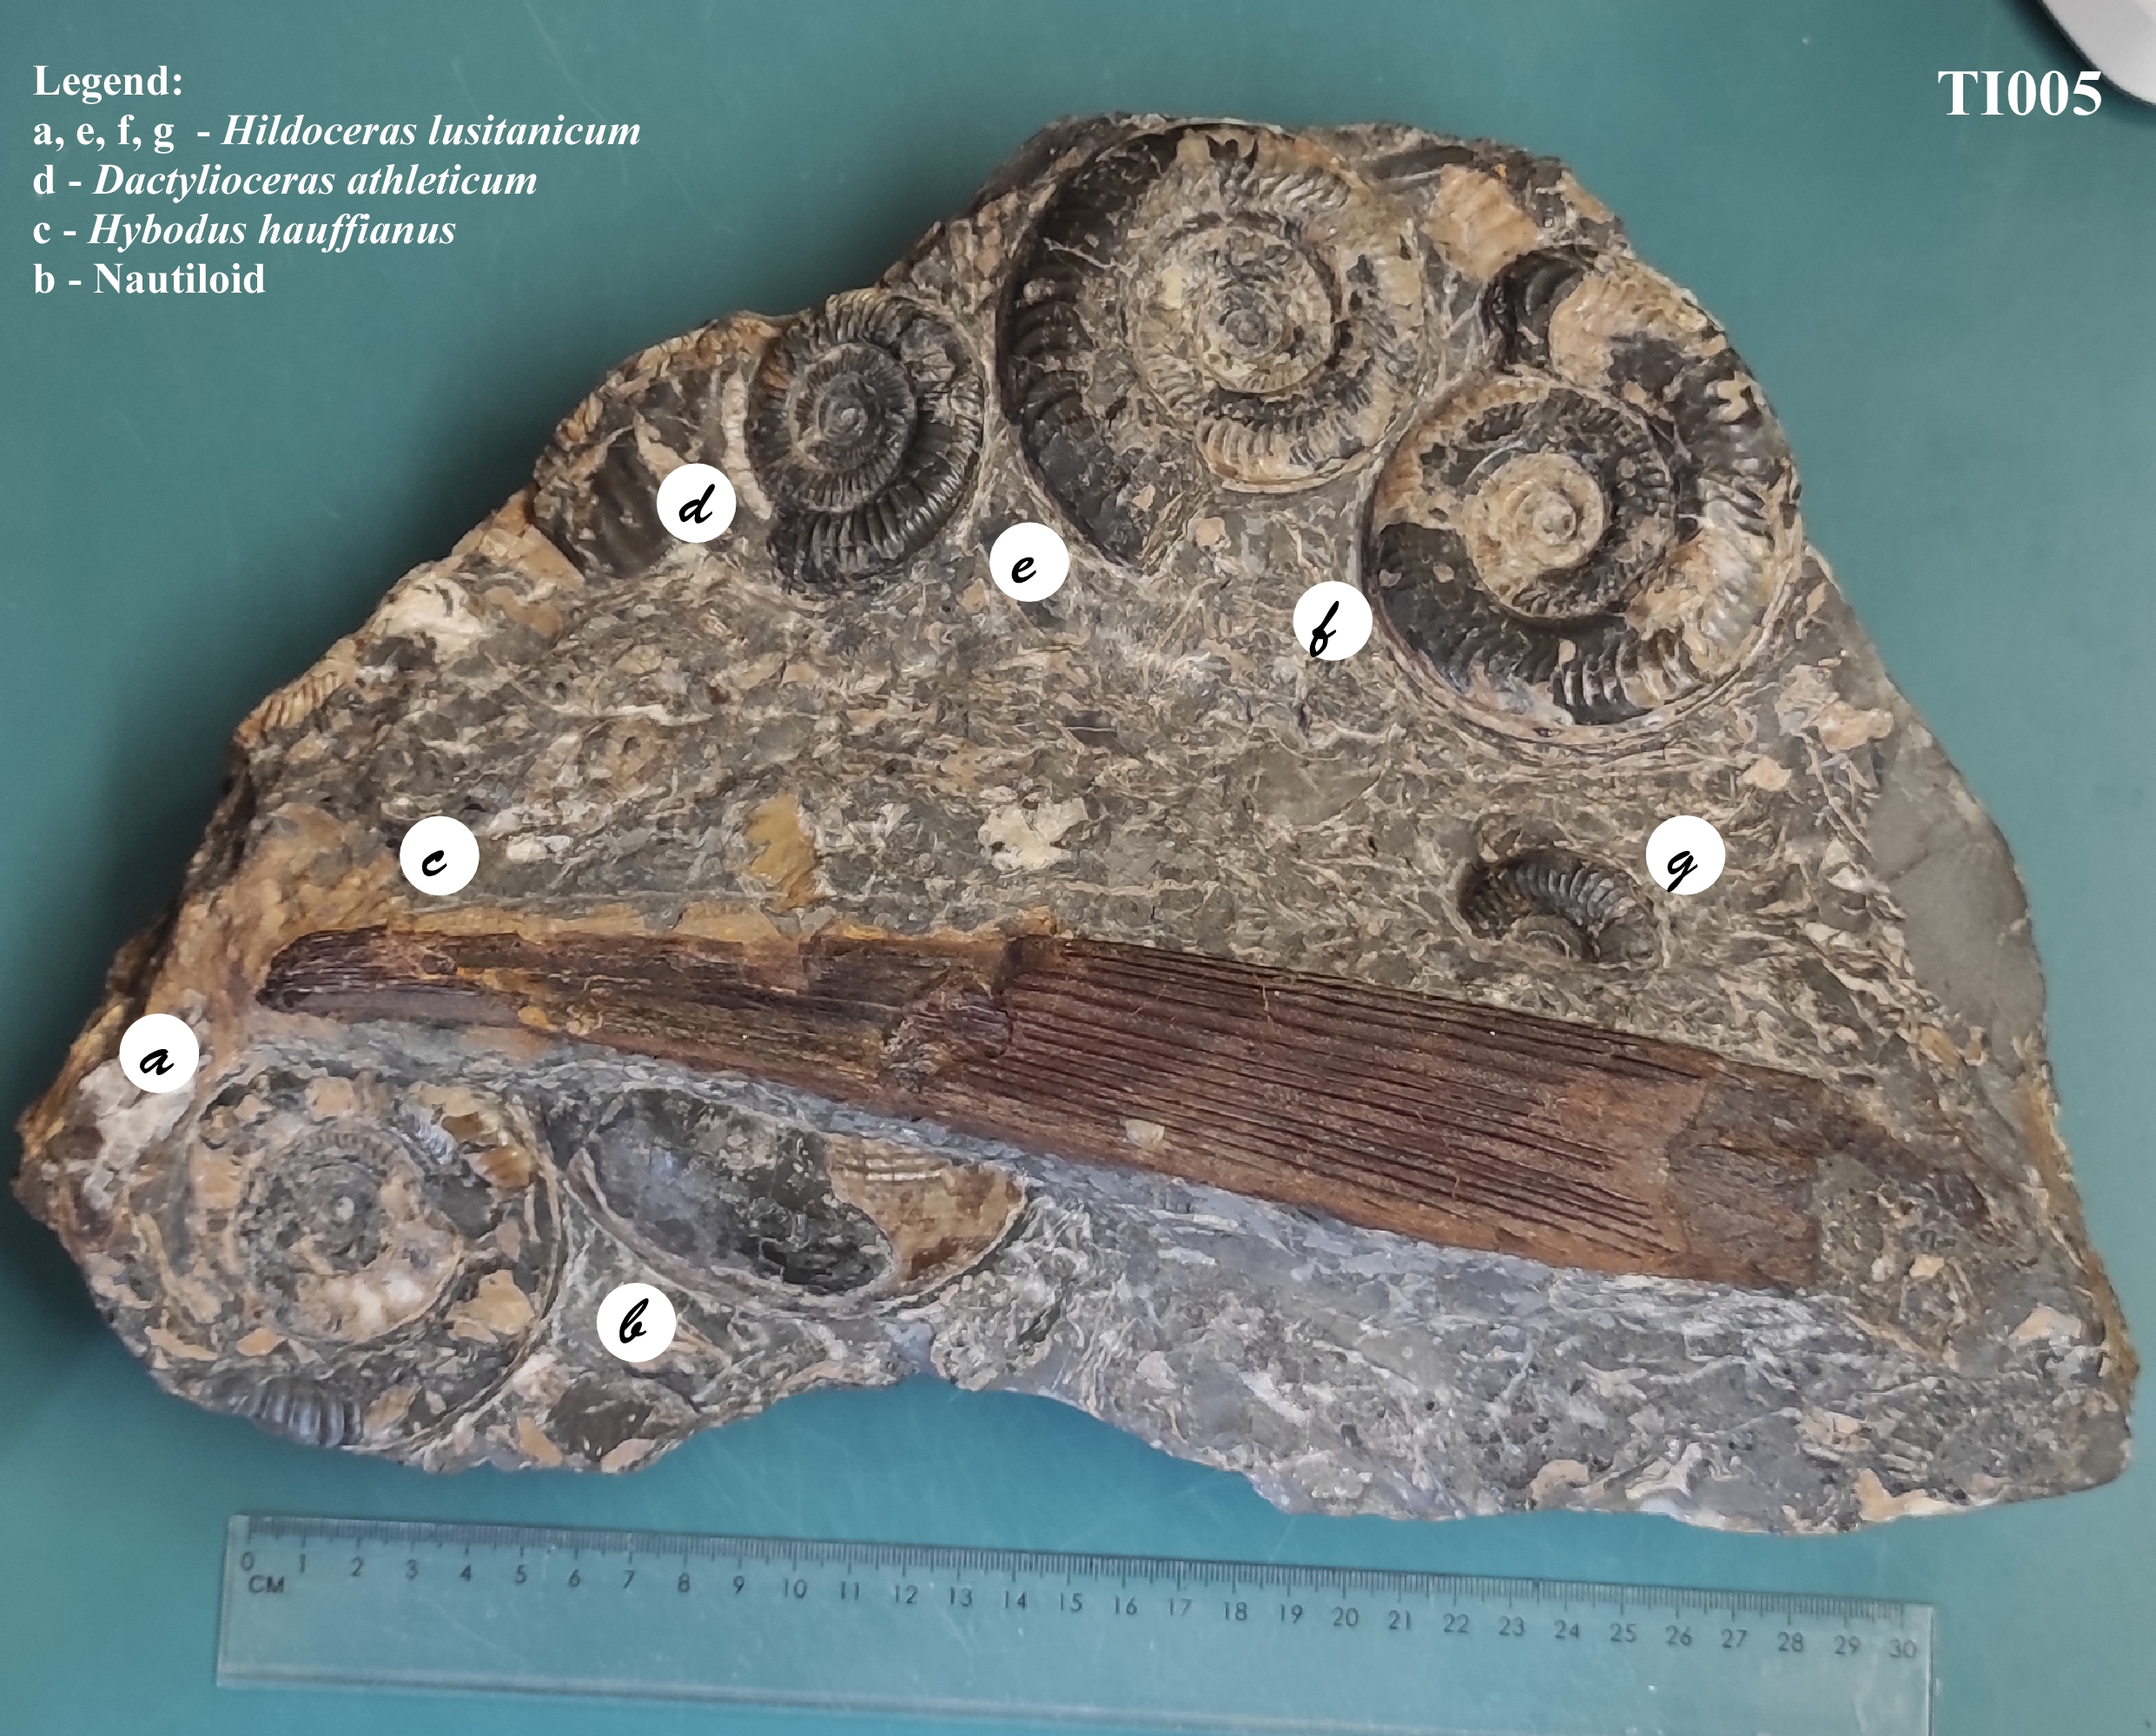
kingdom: Animalia
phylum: Chordata
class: Elasmobranchii
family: Hybodontidae
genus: Hybodus
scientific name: Hybodus hauffianus
